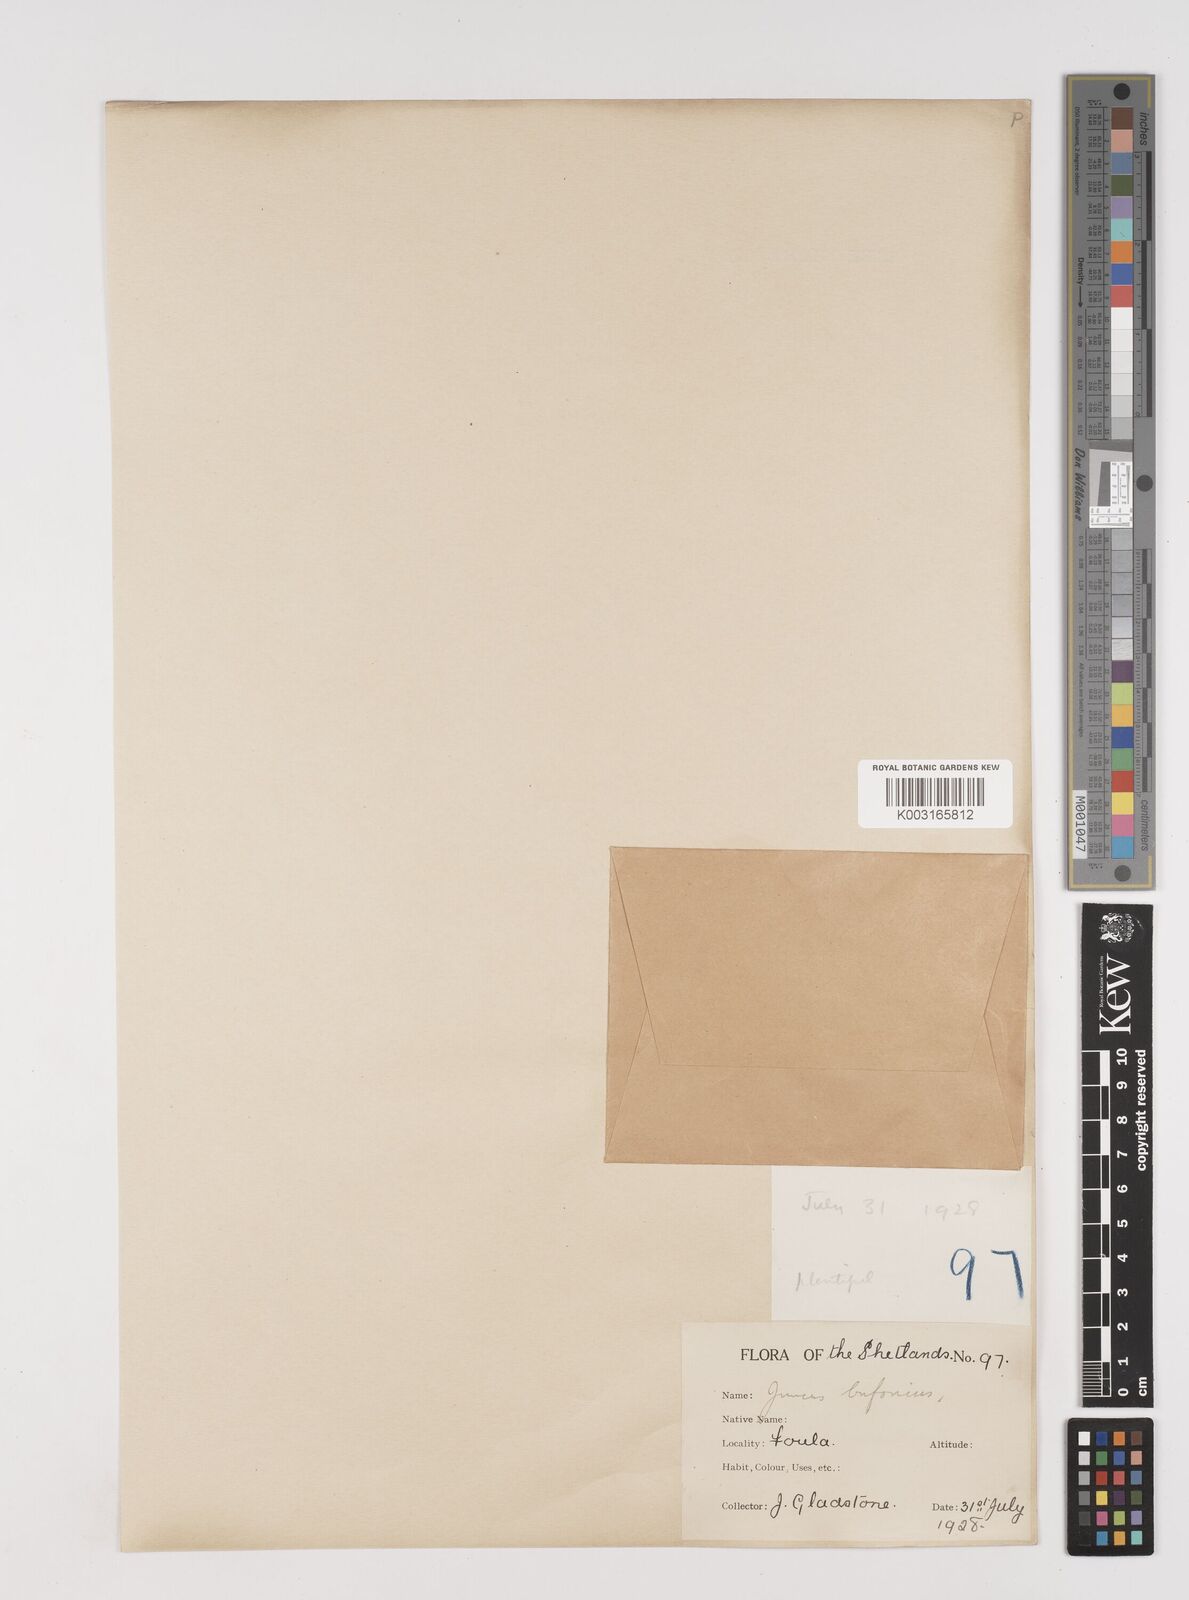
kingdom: Plantae
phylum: Tracheophyta
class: Liliopsida
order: Poales
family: Juncaceae
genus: Juncus
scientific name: Juncus bufonius
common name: Toad rush
